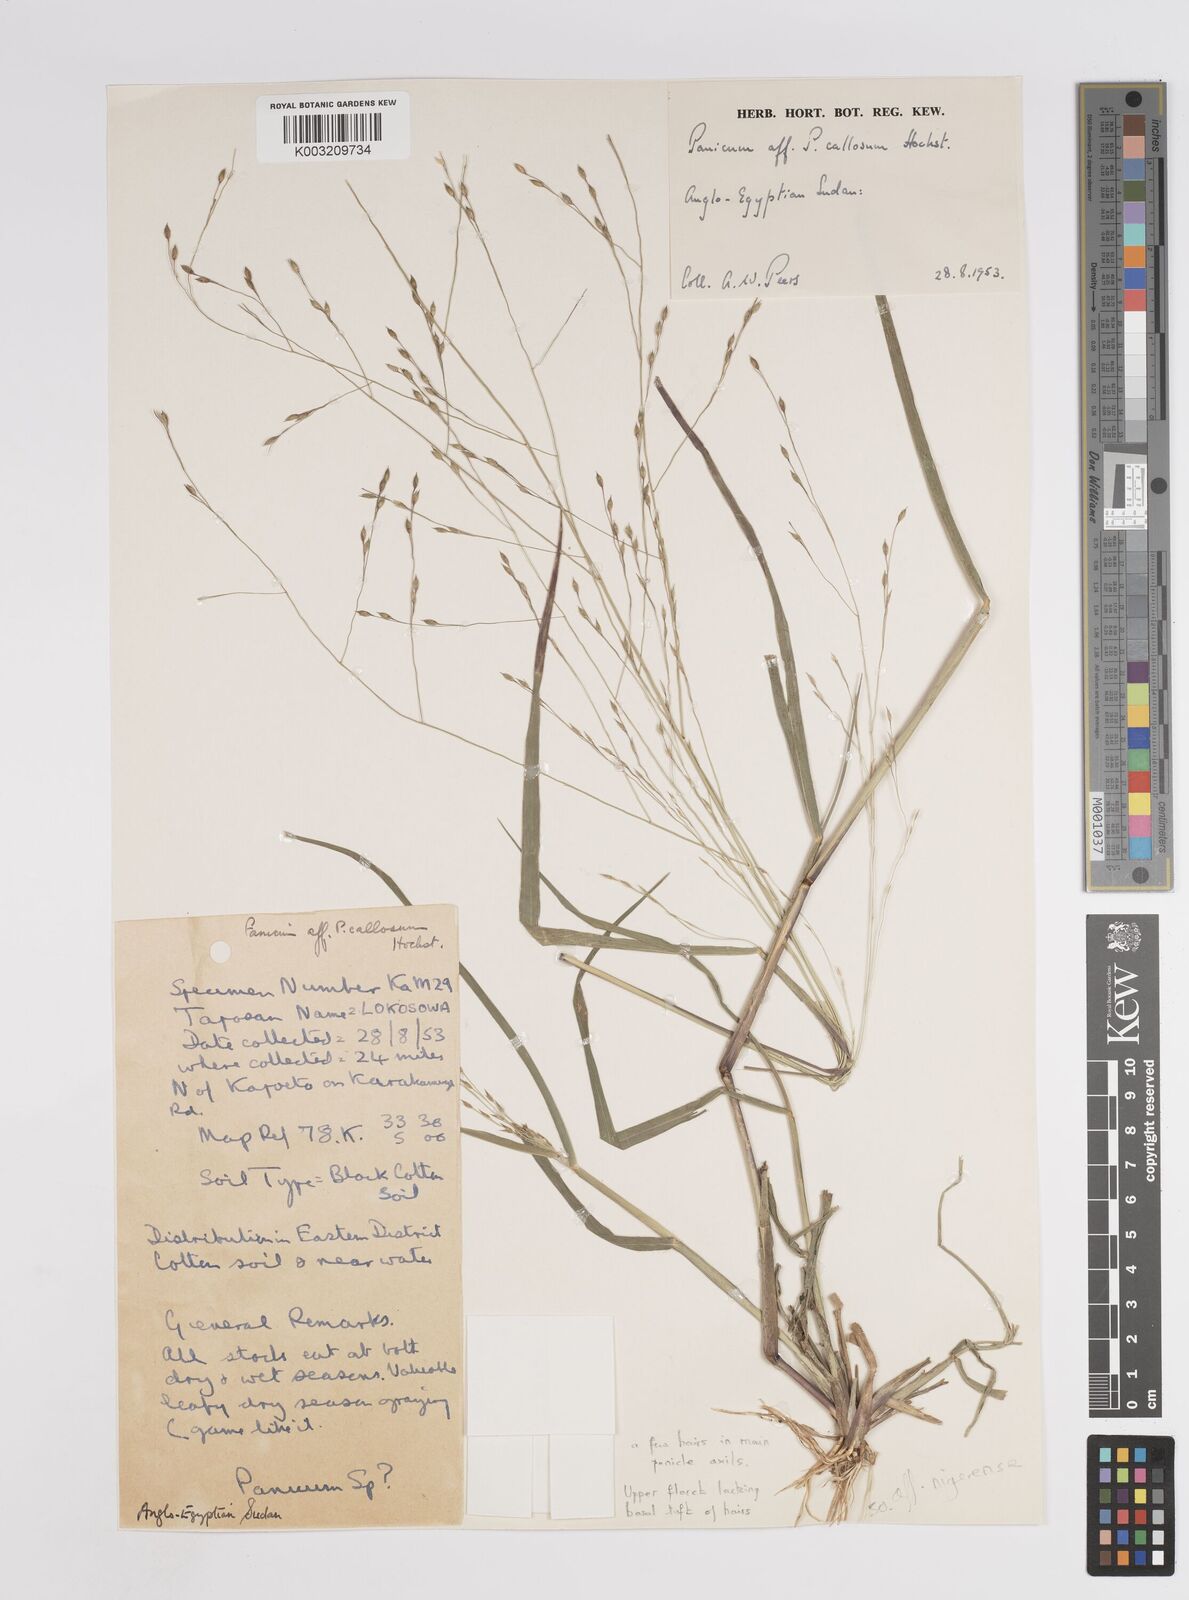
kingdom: Plantae
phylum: Tracheophyta
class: Liliopsida
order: Poales
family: Poaceae
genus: Panicum
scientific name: Panicum callosum
